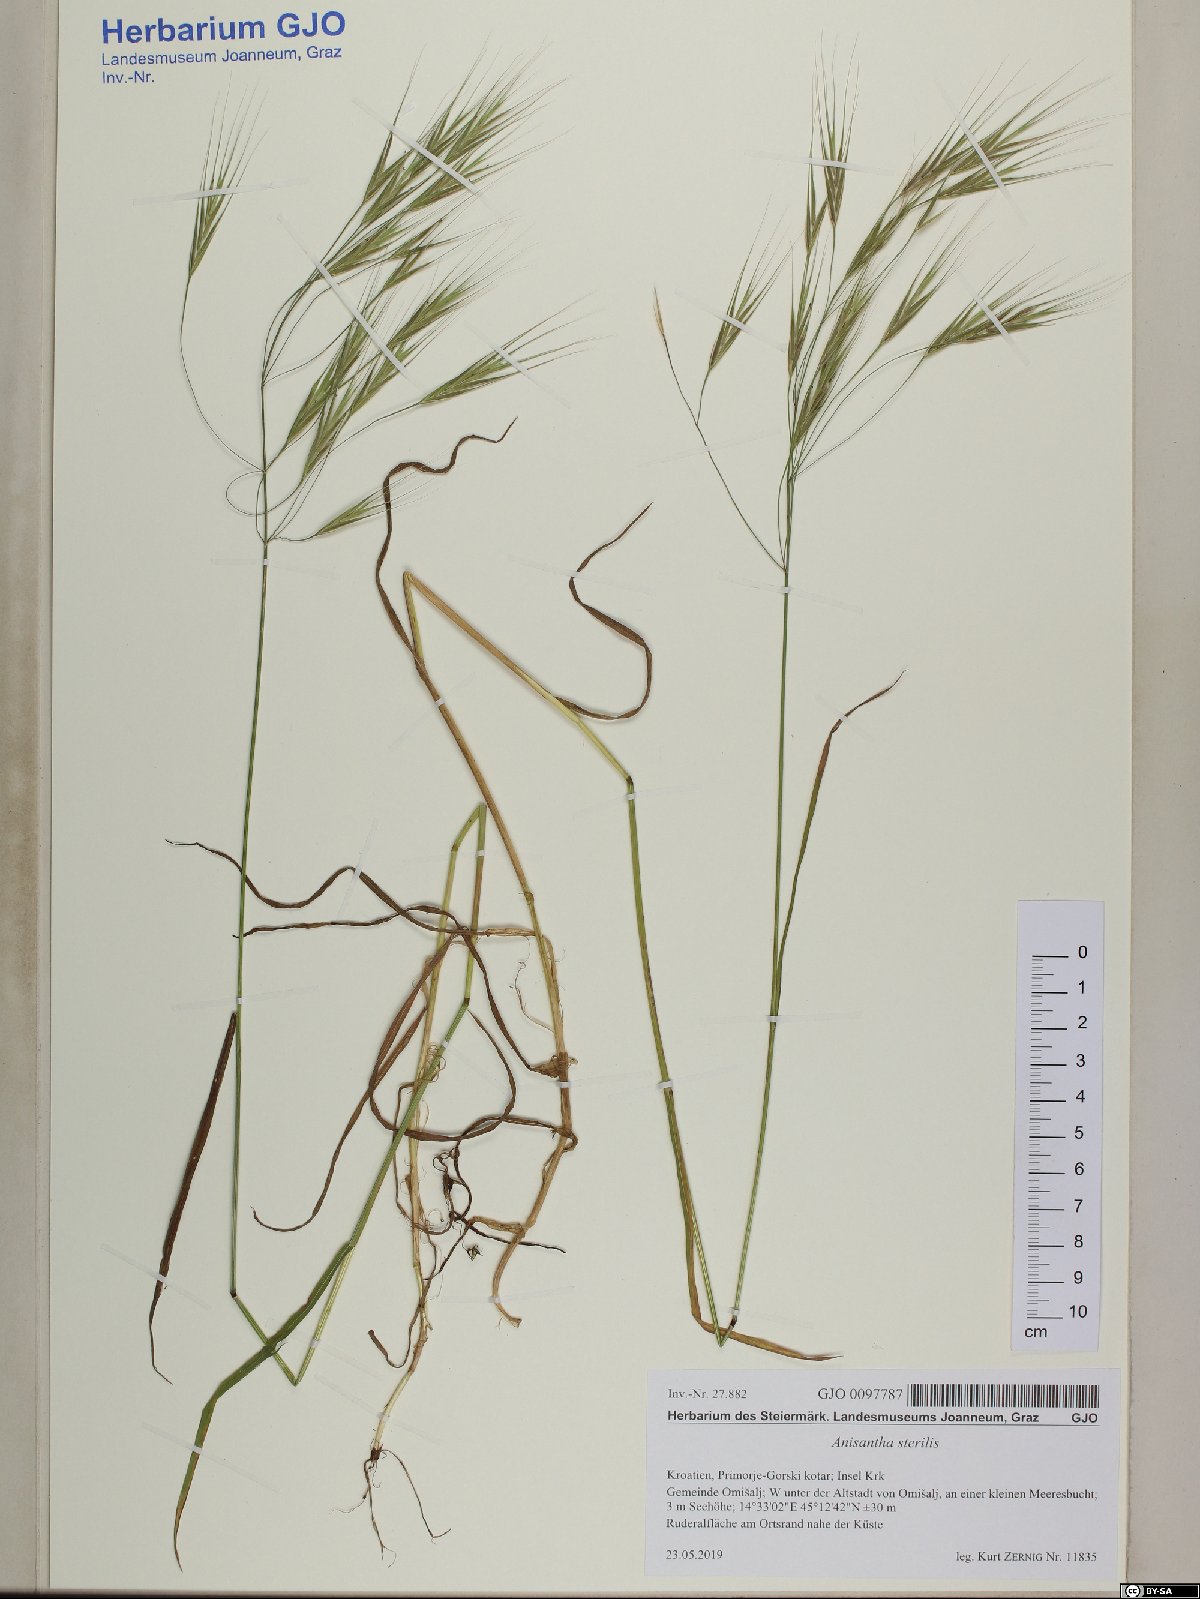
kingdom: Plantae
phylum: Tracheophyta
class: Liliopsida
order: Poales
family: Poaceae
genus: Bromus
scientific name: Bromus sterilis
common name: Poverty brome
